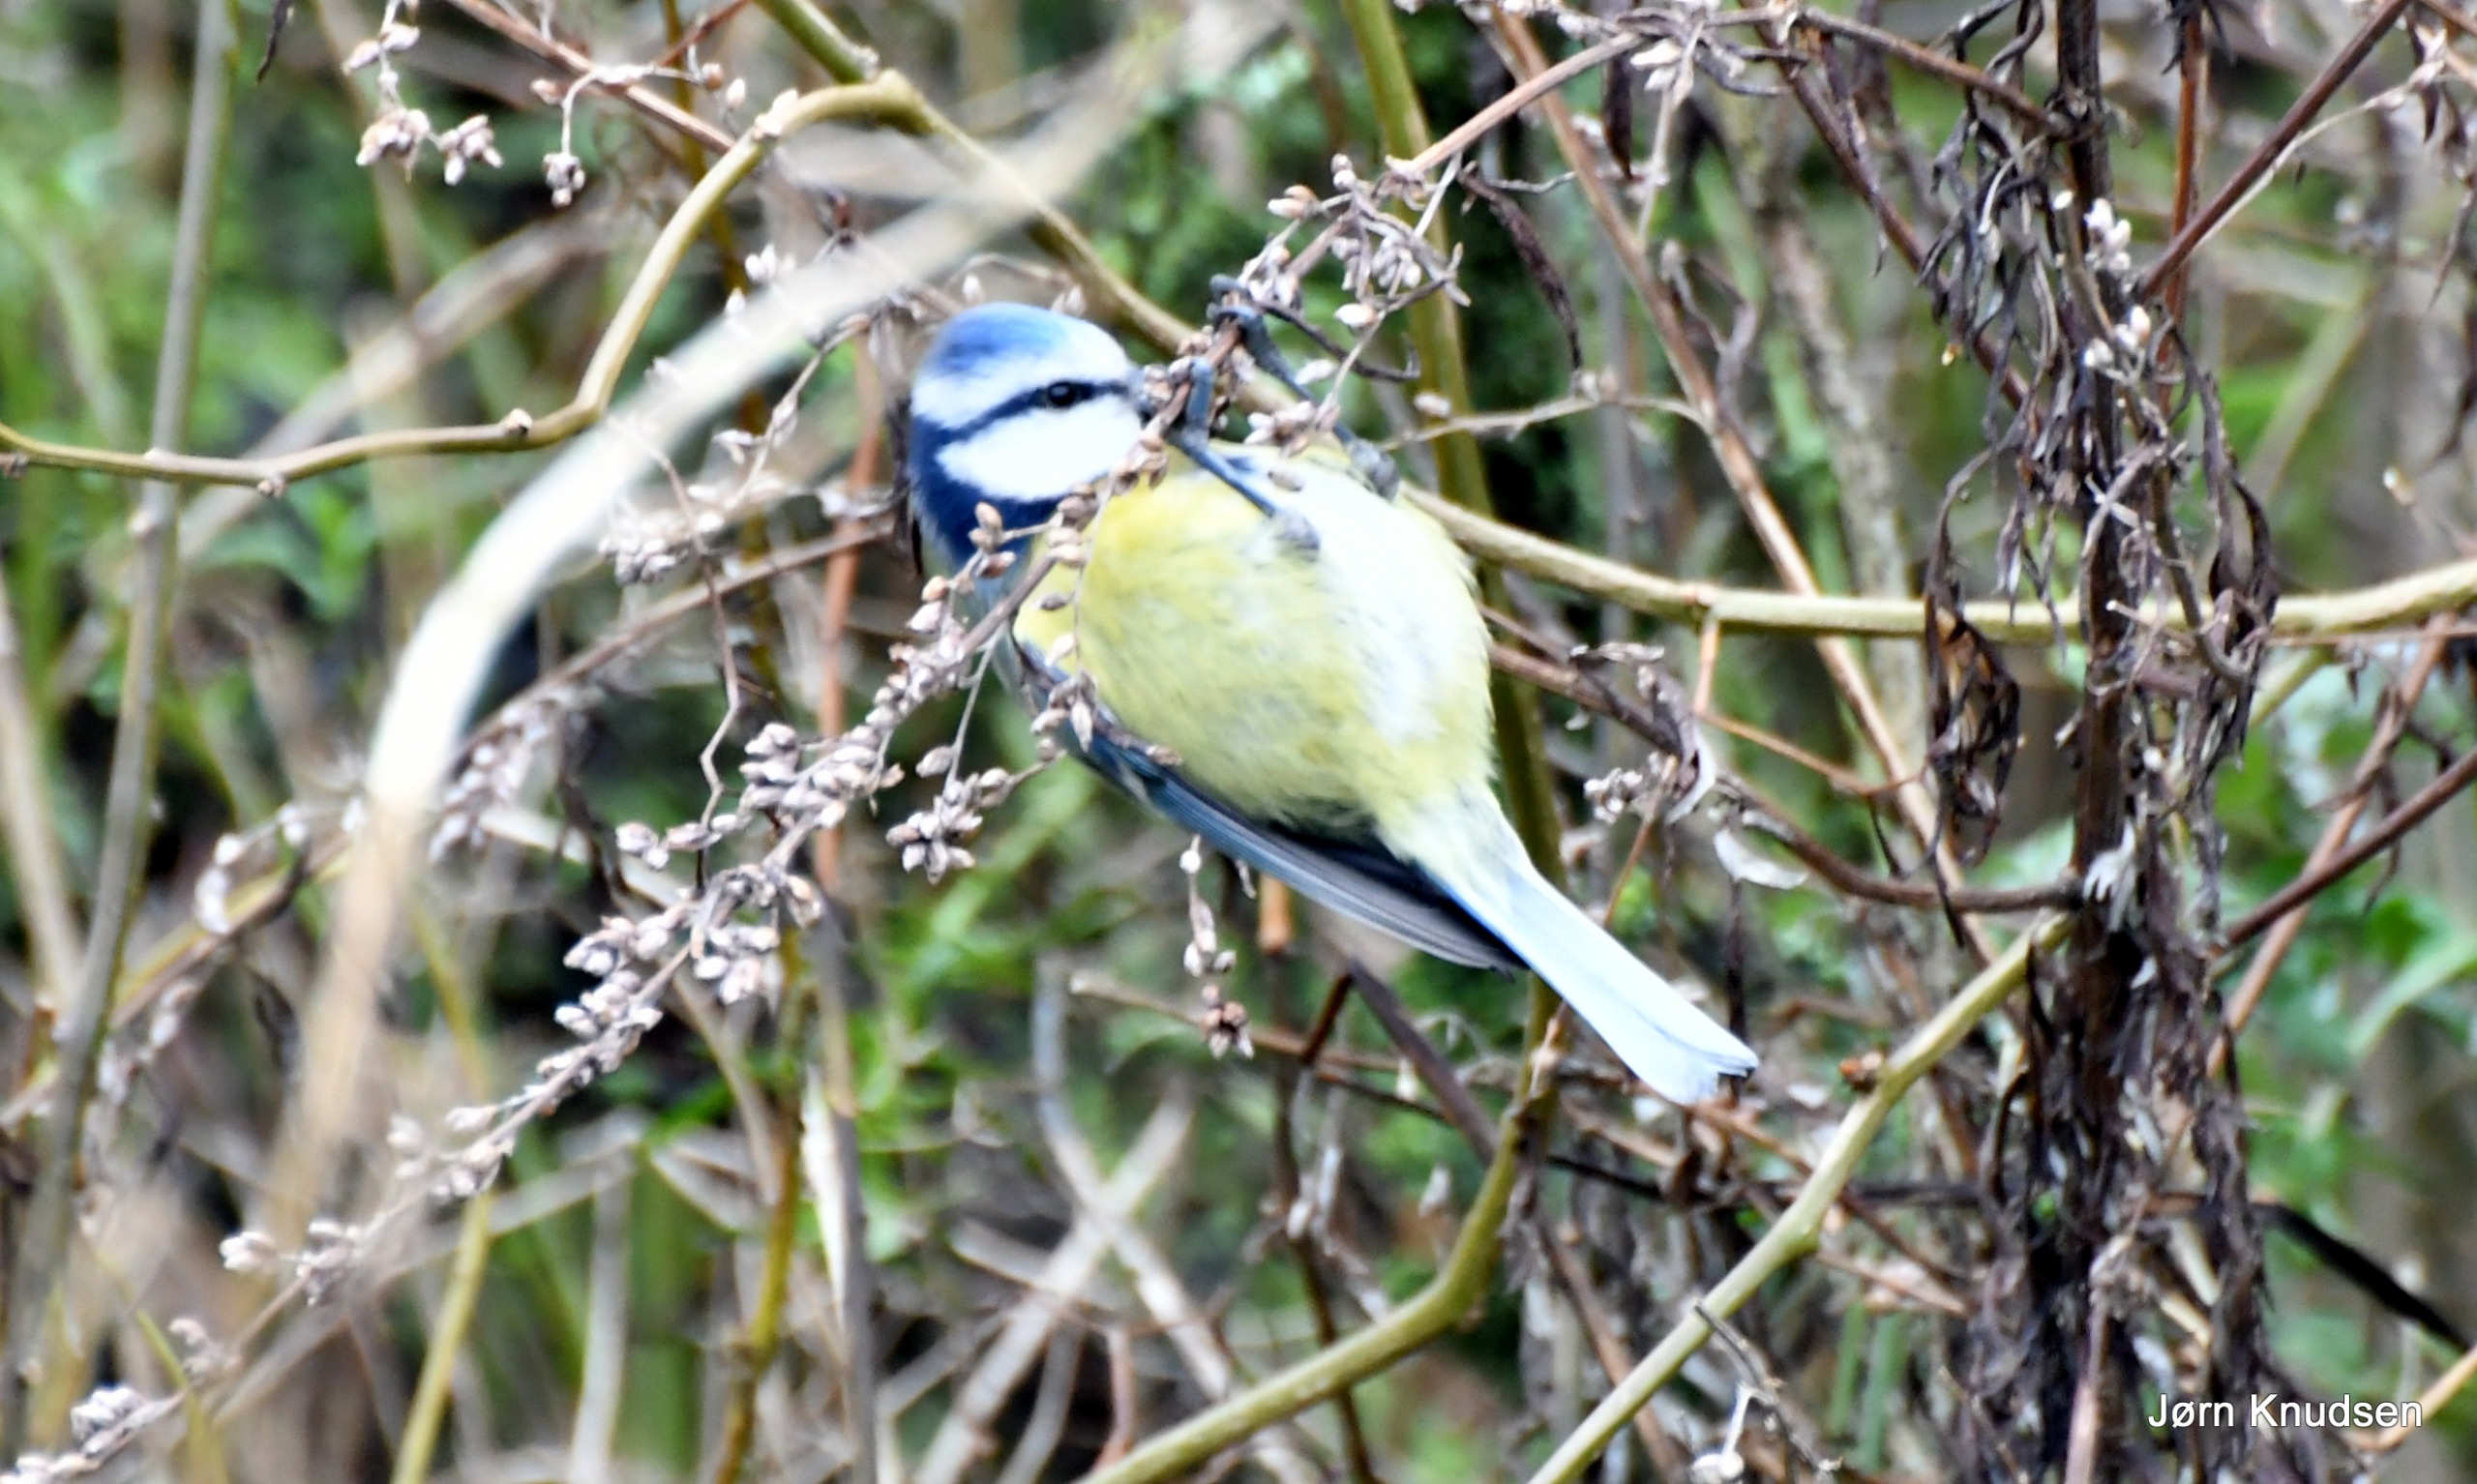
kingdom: Animalia
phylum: Chordata
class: Aves
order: Passeriformes
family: Paridae
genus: Cyanistes
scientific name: Cyanistes caeruleus
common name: Blåmejse
